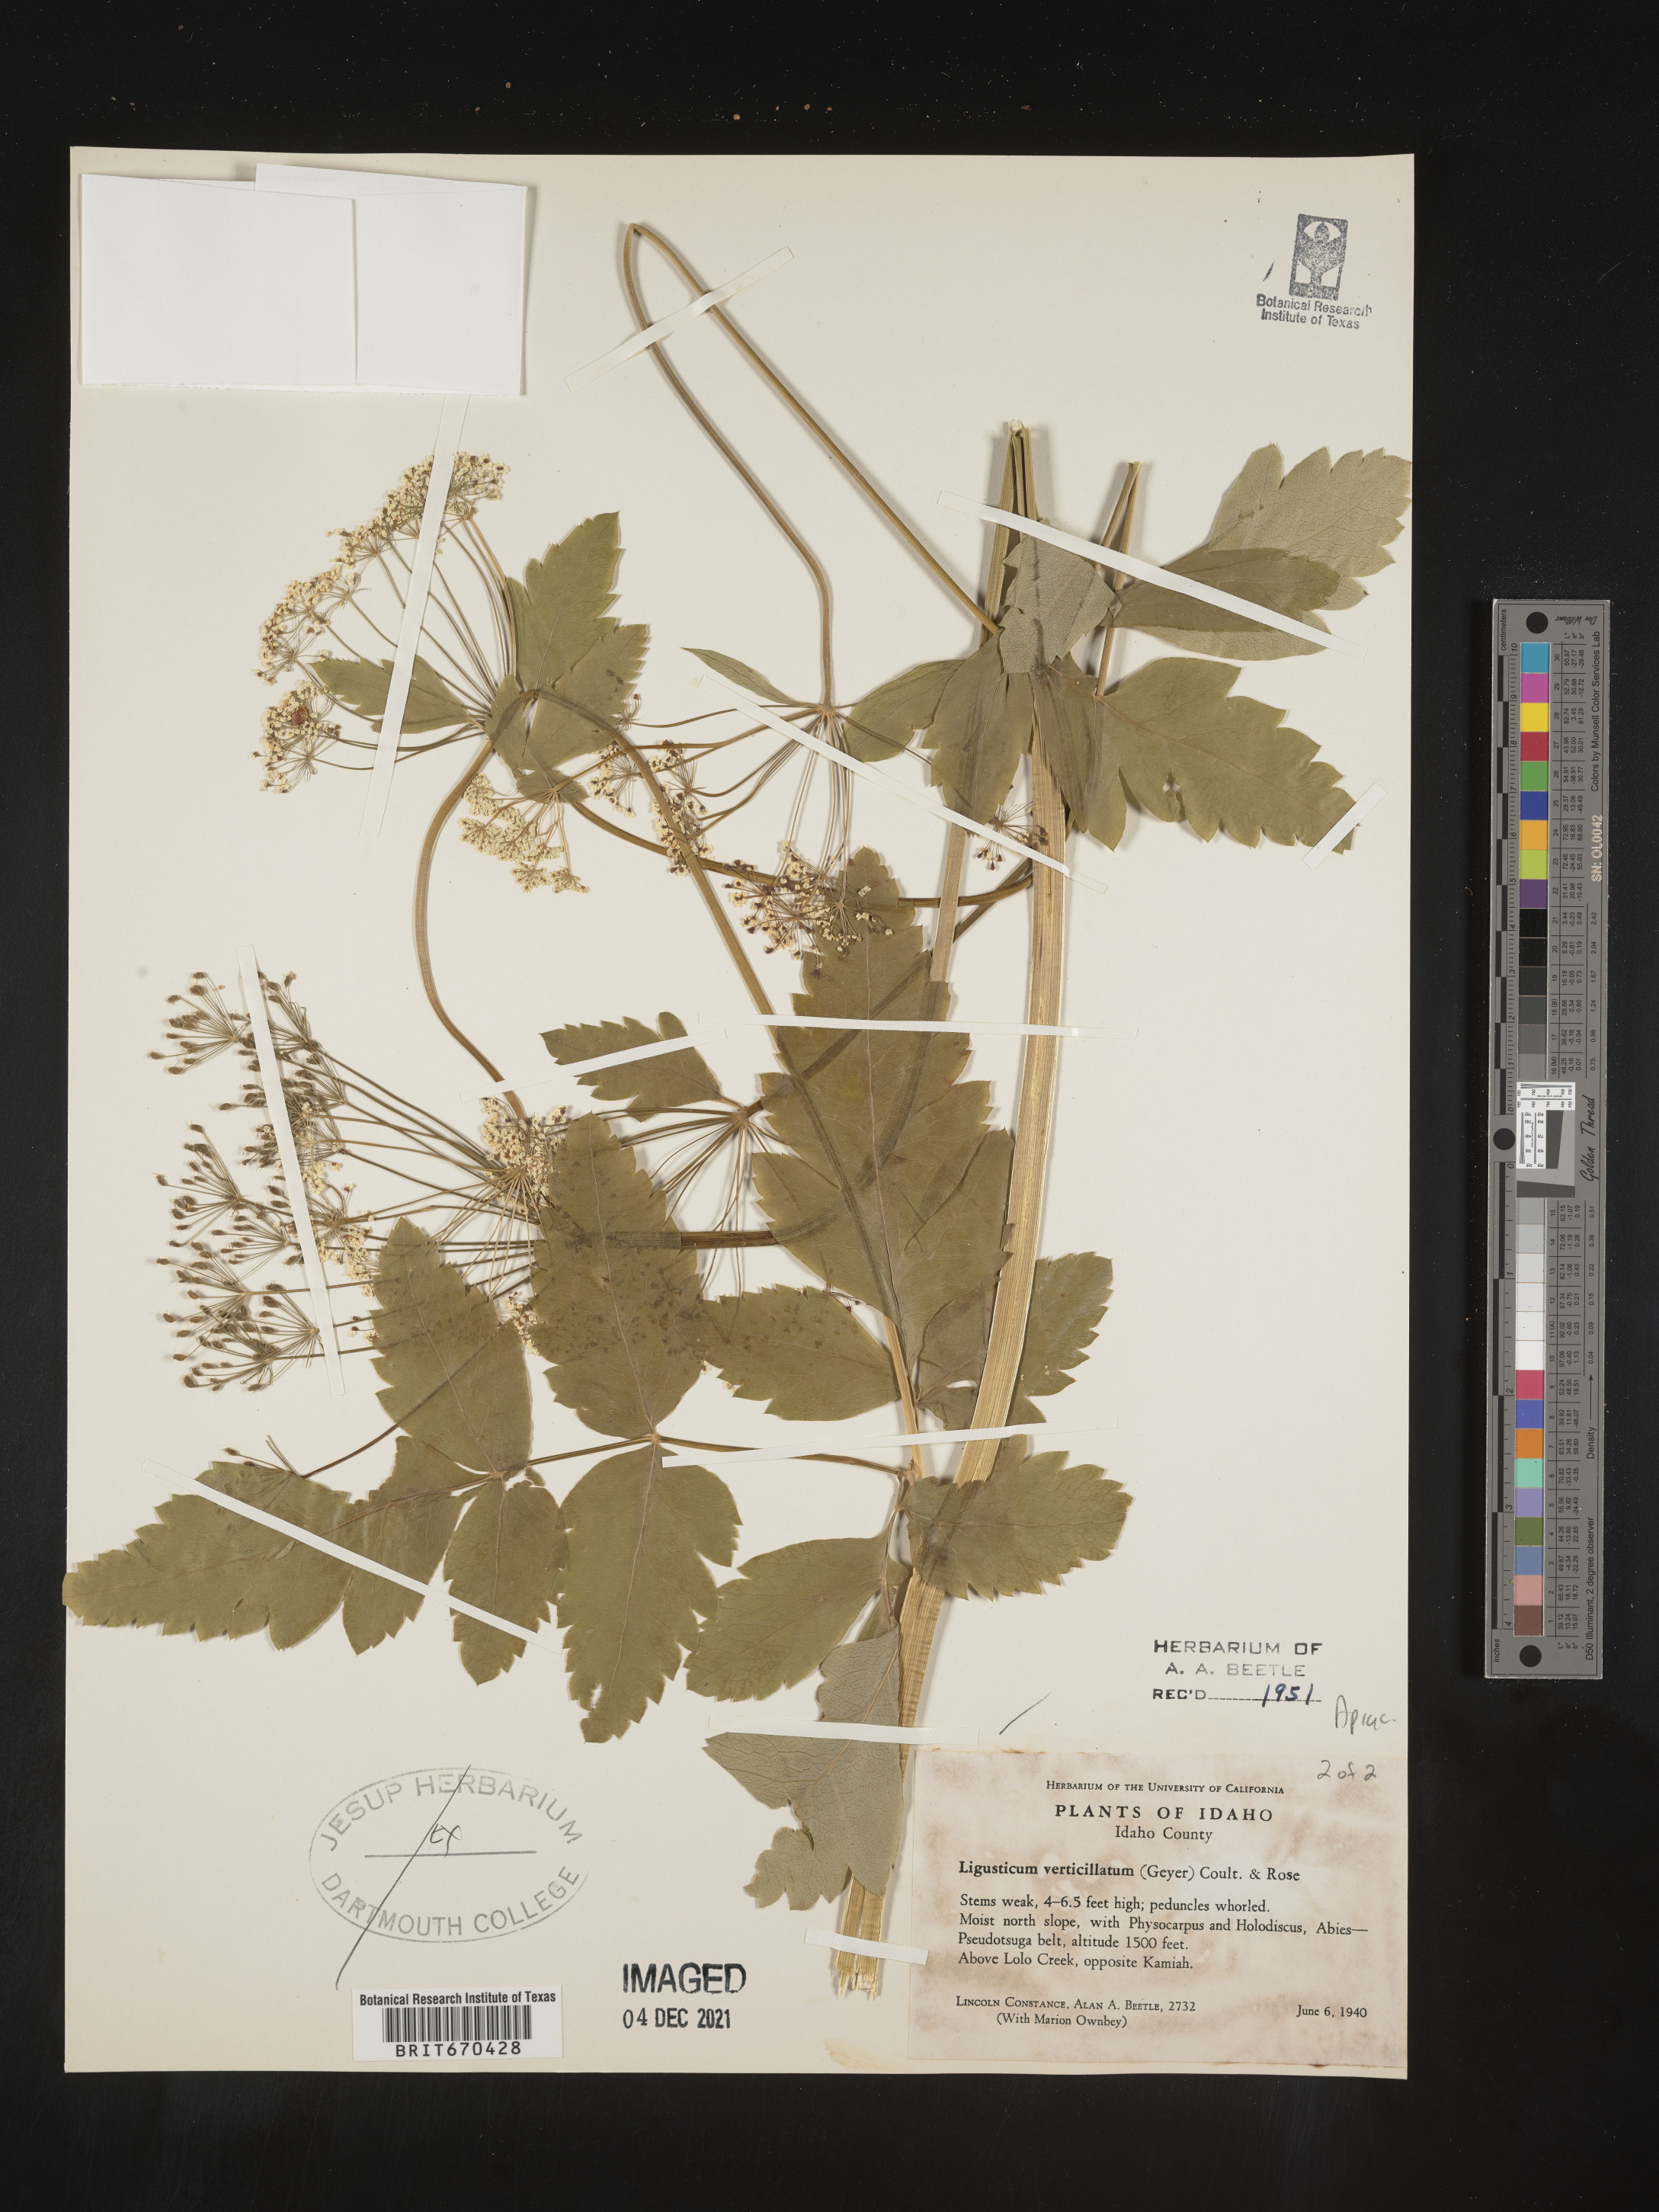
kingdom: Plantae
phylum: Tracheophyta
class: Magnoliopsida
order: Apiales
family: Apiaceae
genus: Ligusticum
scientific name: Ligusticum verticillatum
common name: Northern licorice-root
